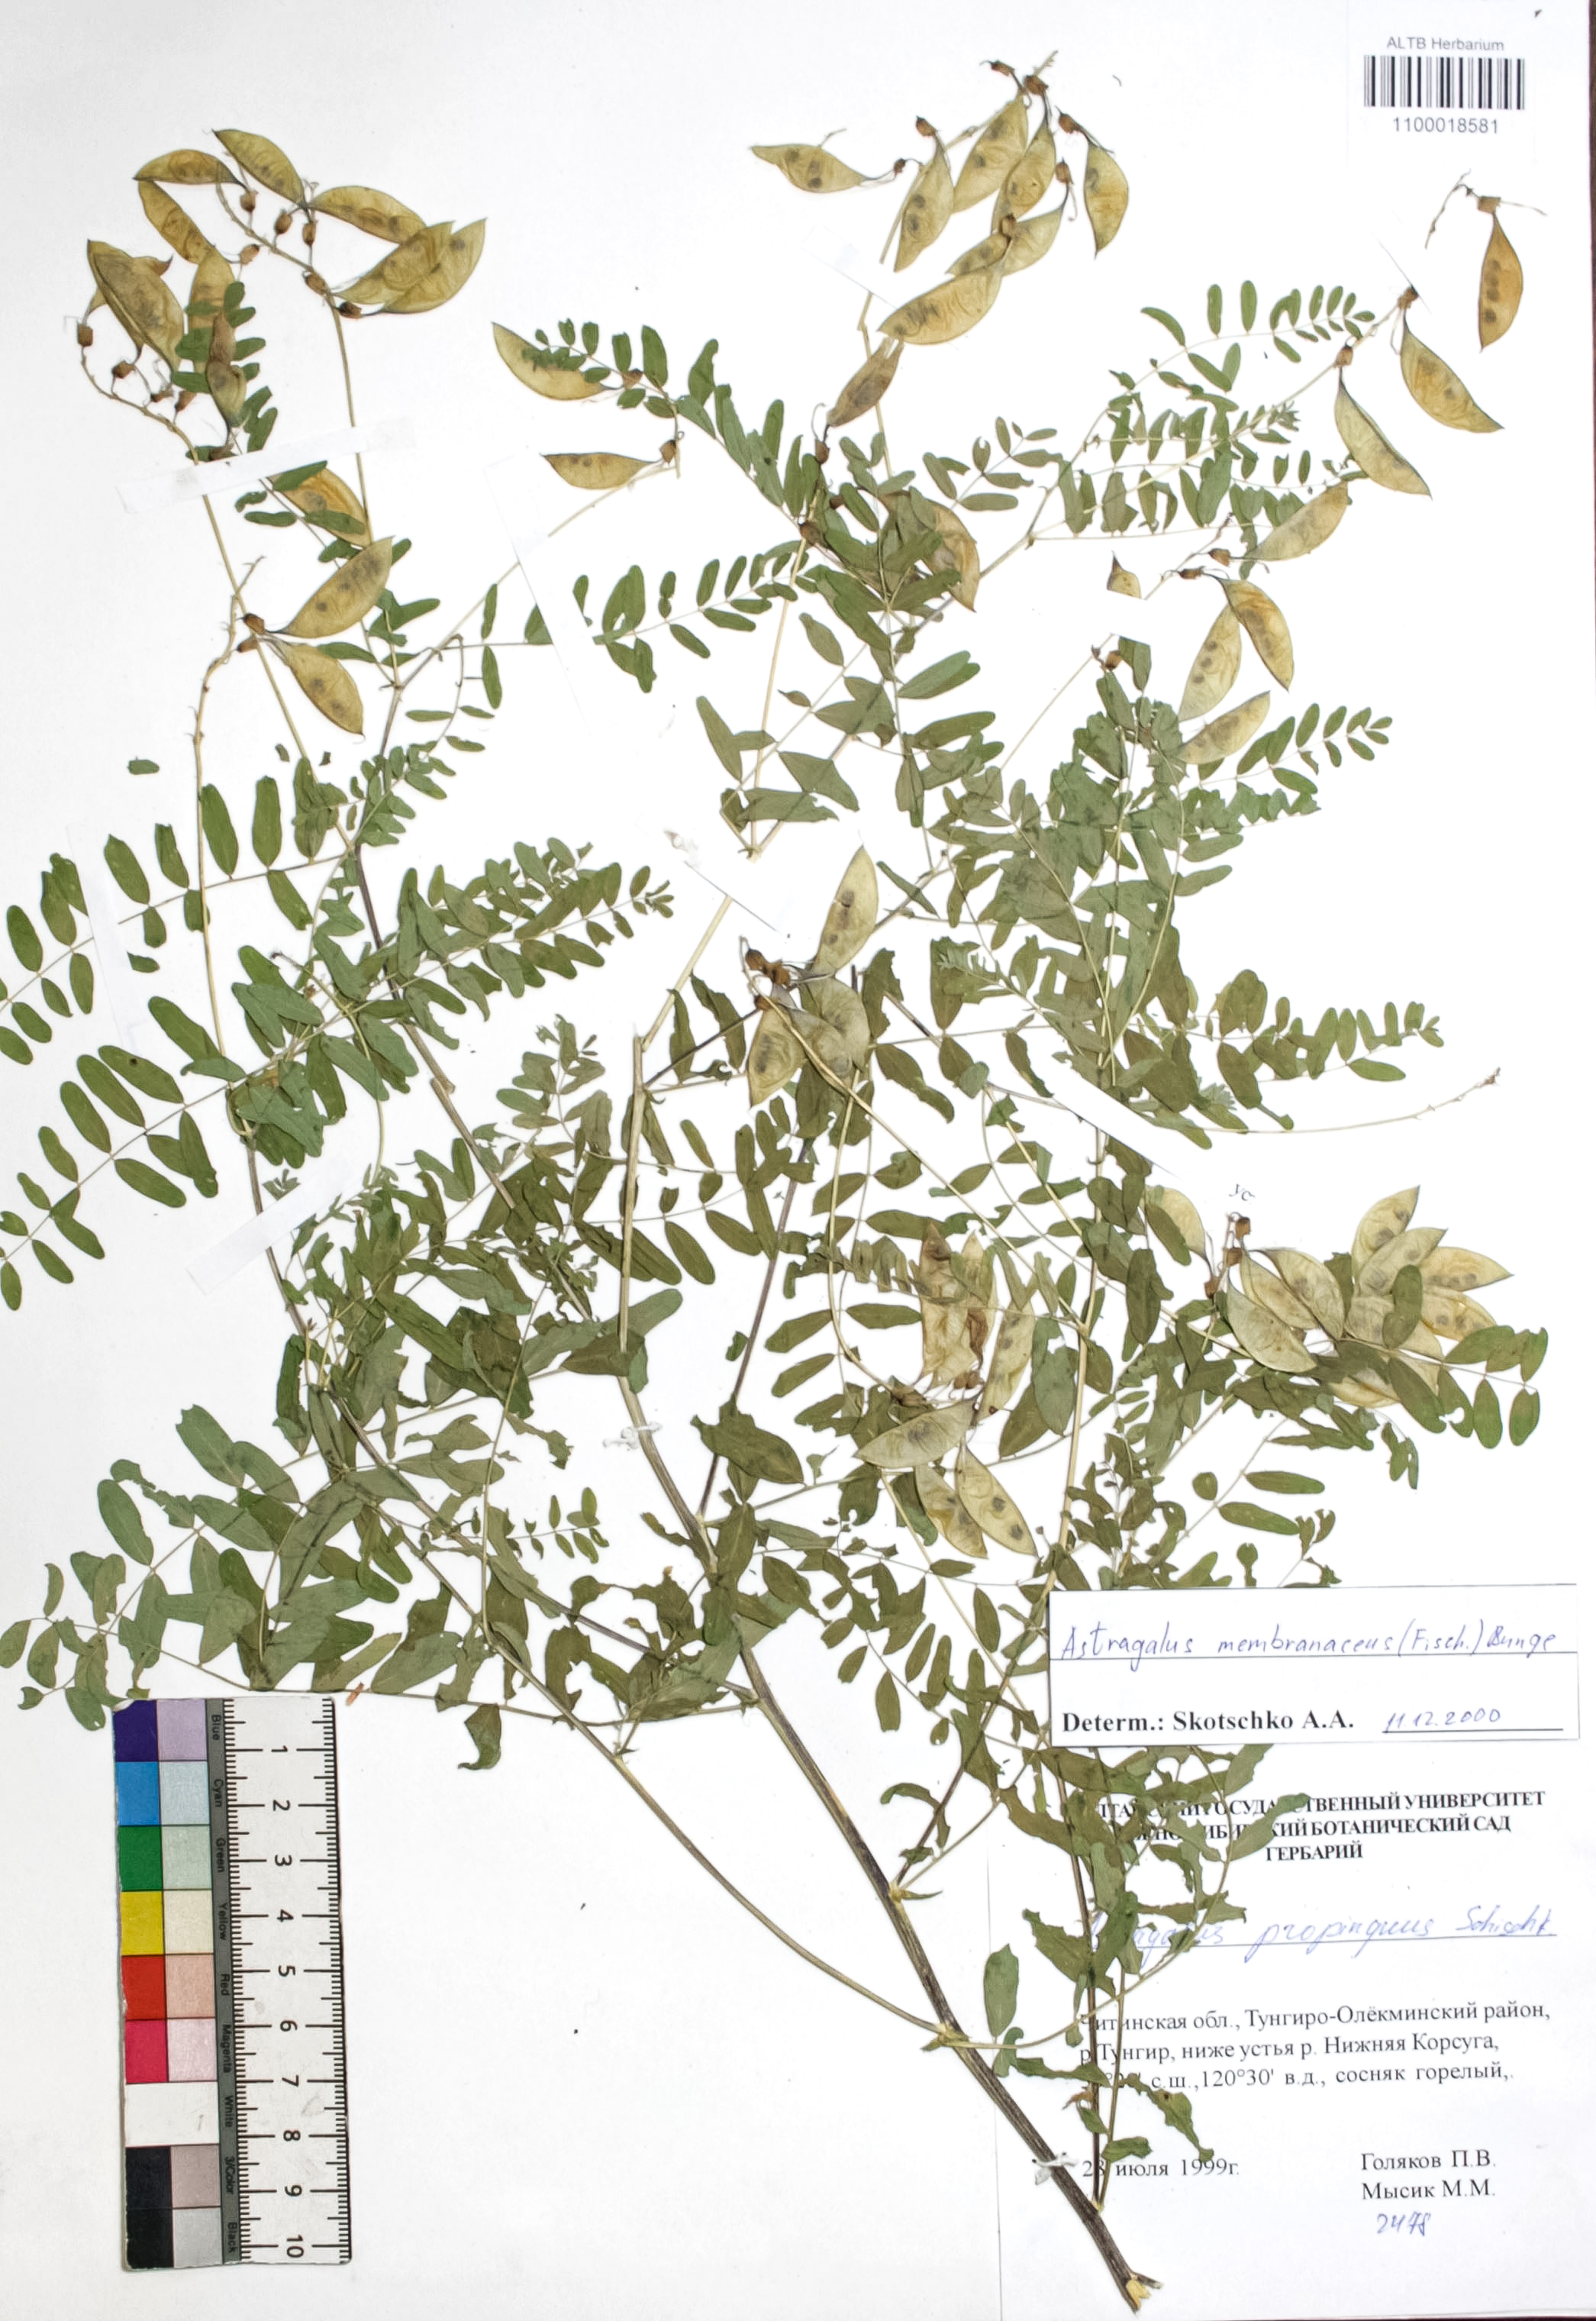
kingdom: Plantae
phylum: Tracheophyta
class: Magnoliopsida
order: Fabales
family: Fabaceae
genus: Astragalus
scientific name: Astragalus mongholicus
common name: Membranous milk-vetch
